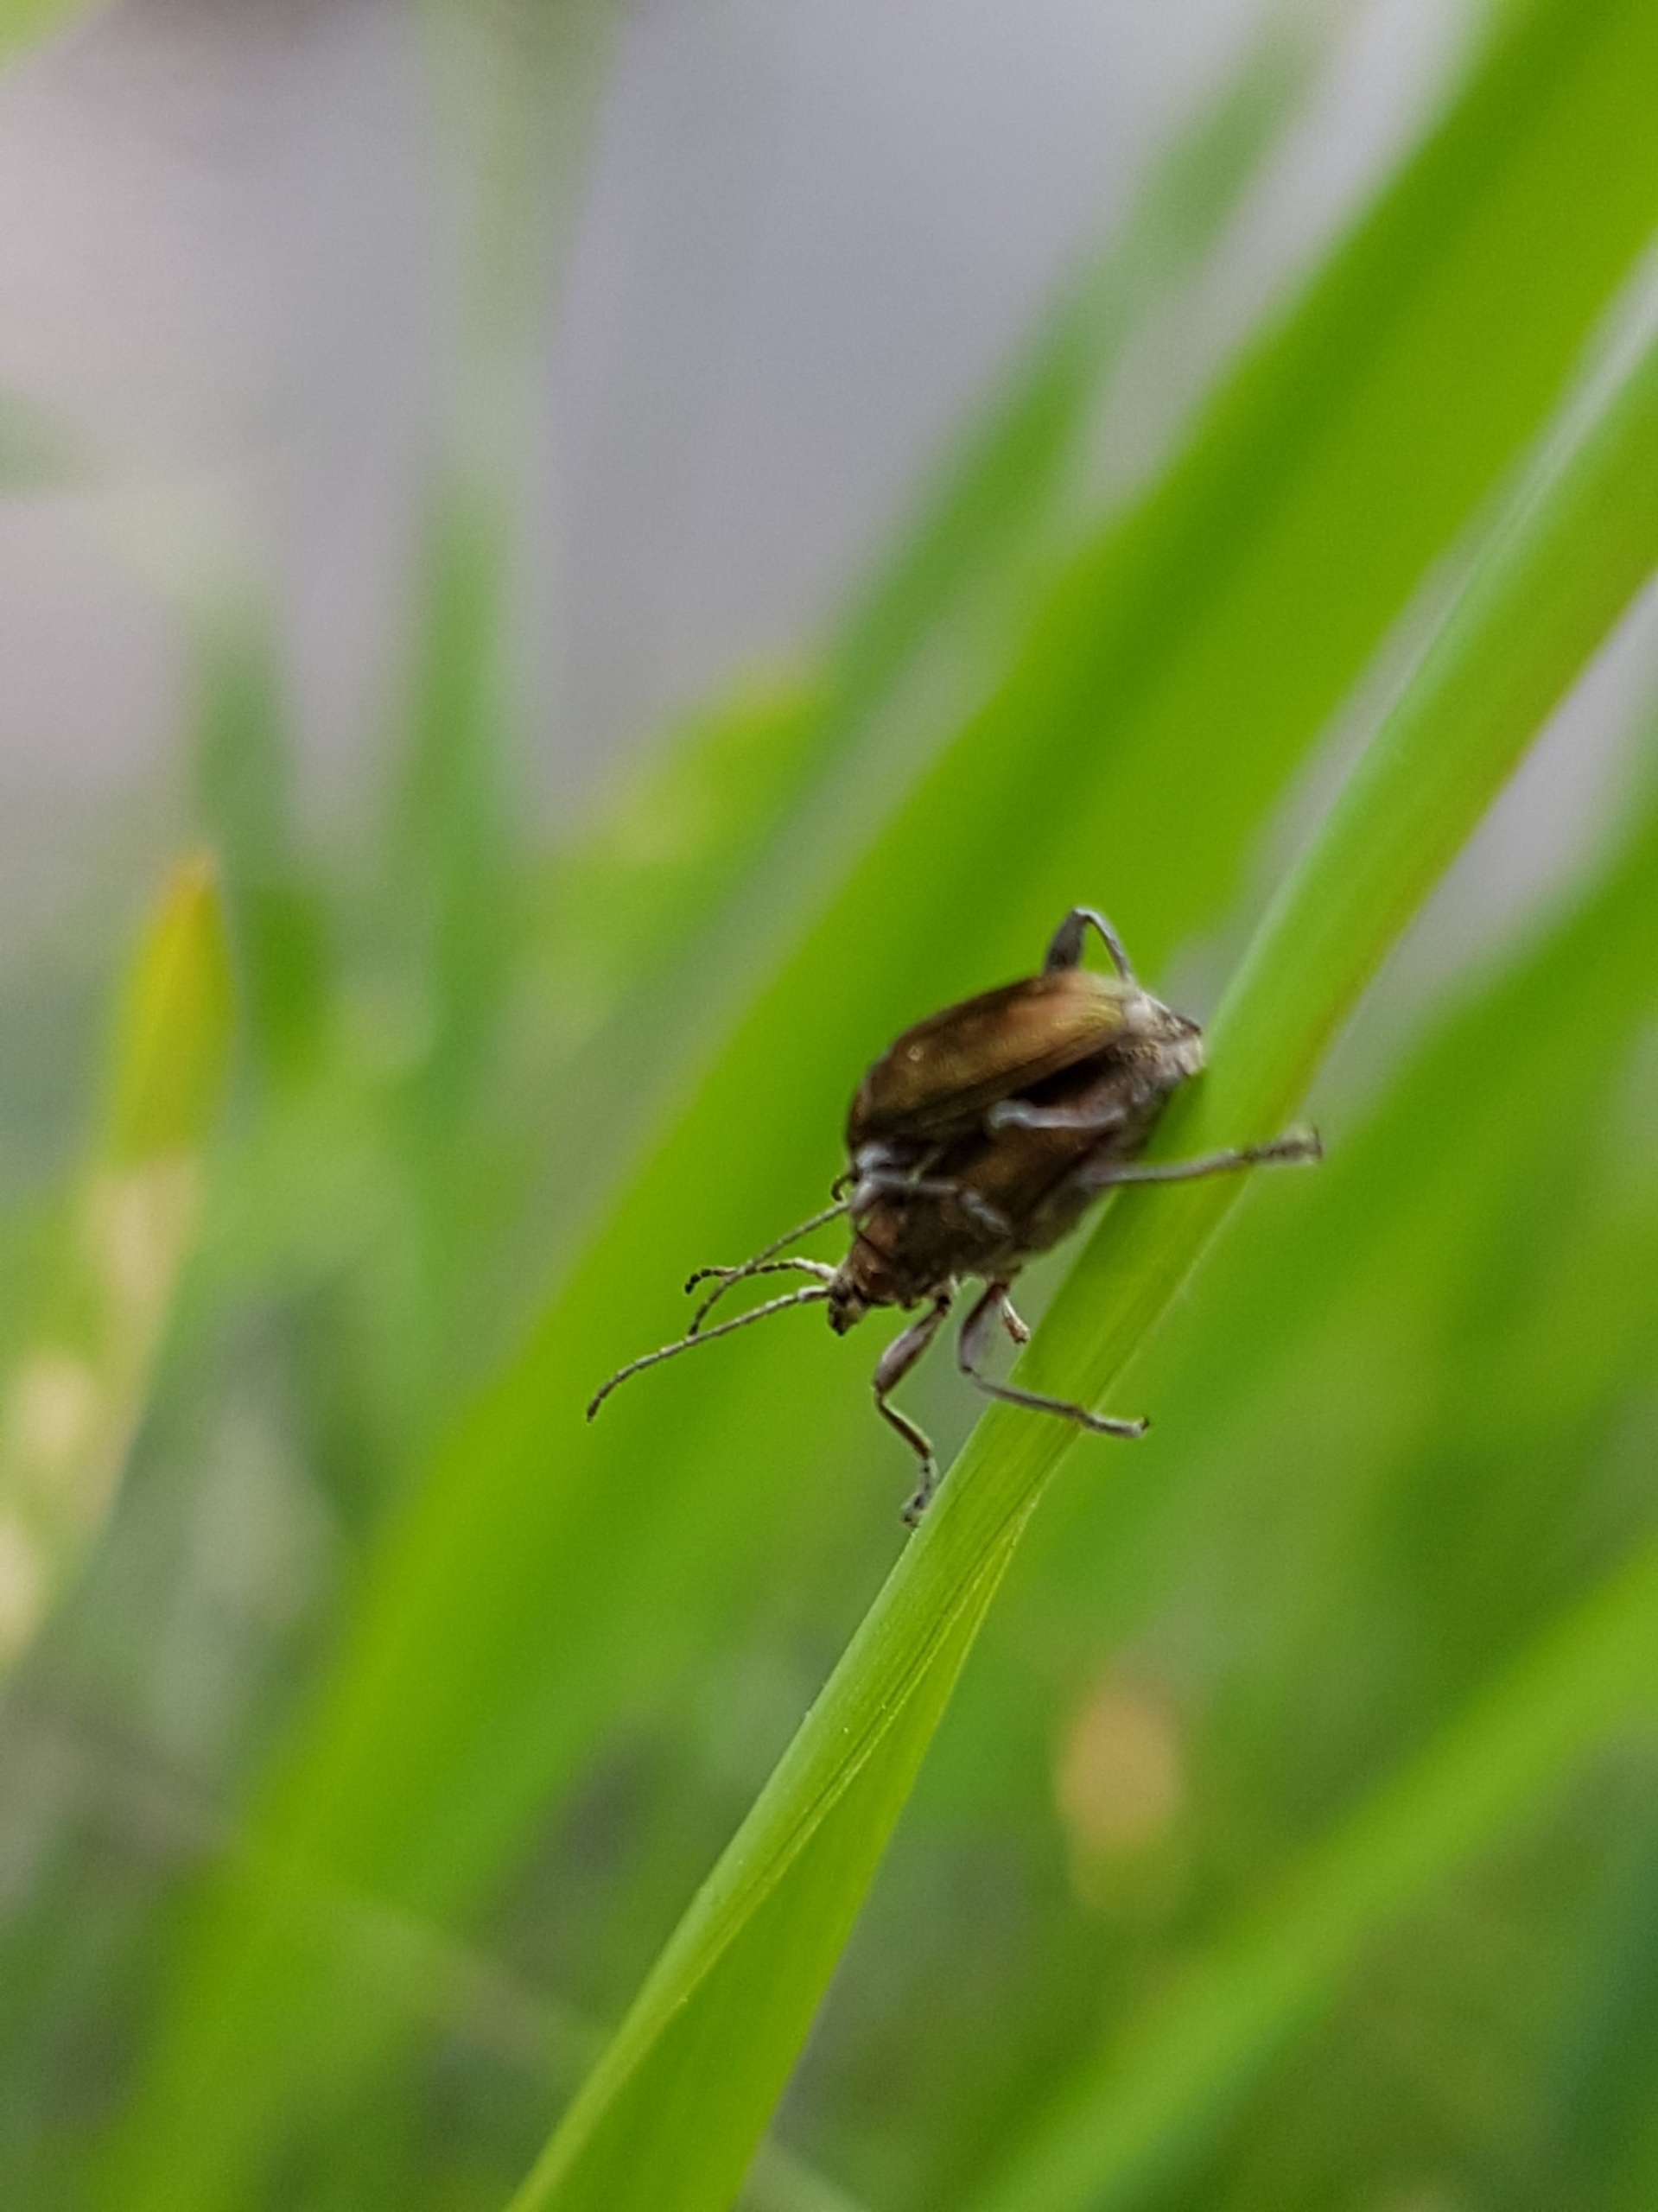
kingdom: Animalia
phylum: Arthropoda
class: Insecta
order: Coleoptera
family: Chrysomelidae
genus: Donacia
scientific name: Donacia
